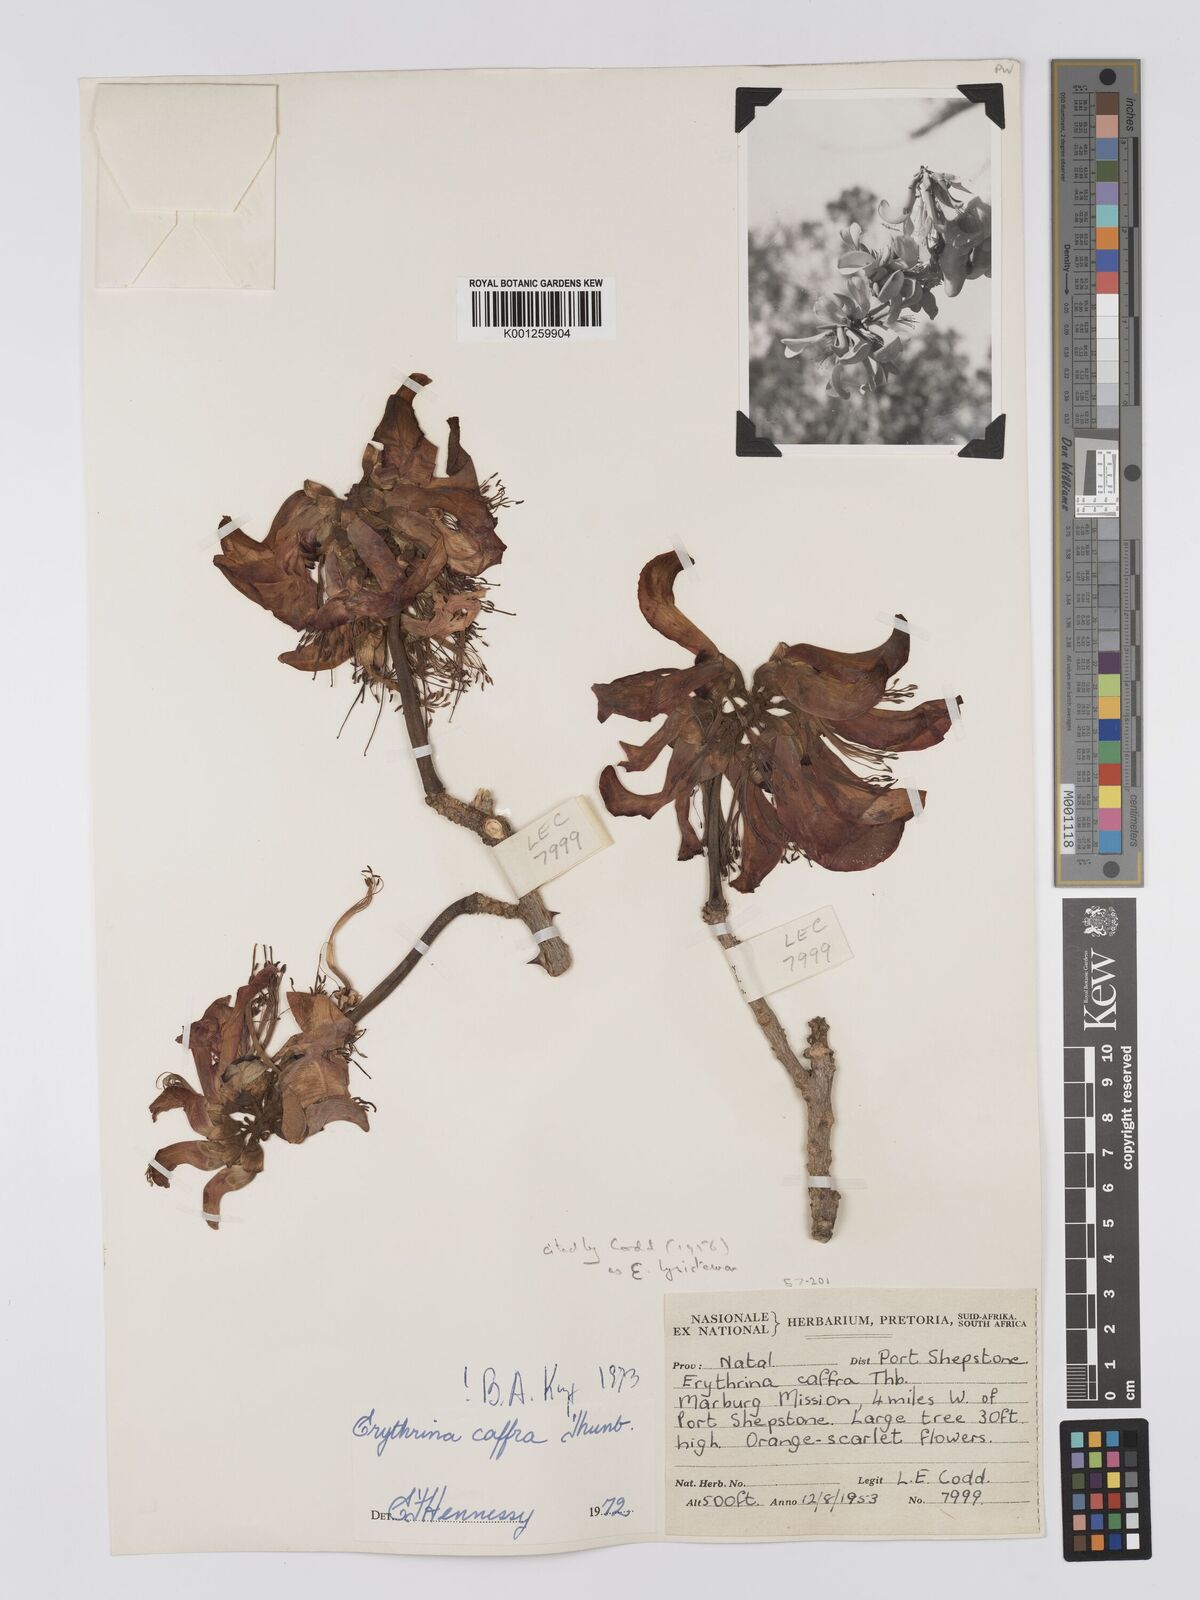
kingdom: Plantae
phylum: Tracheophyta
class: Magnoliopsida
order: Fabales
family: Fabaceae
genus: Erythrina
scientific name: Erythrina caffra
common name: Coast coral tree
